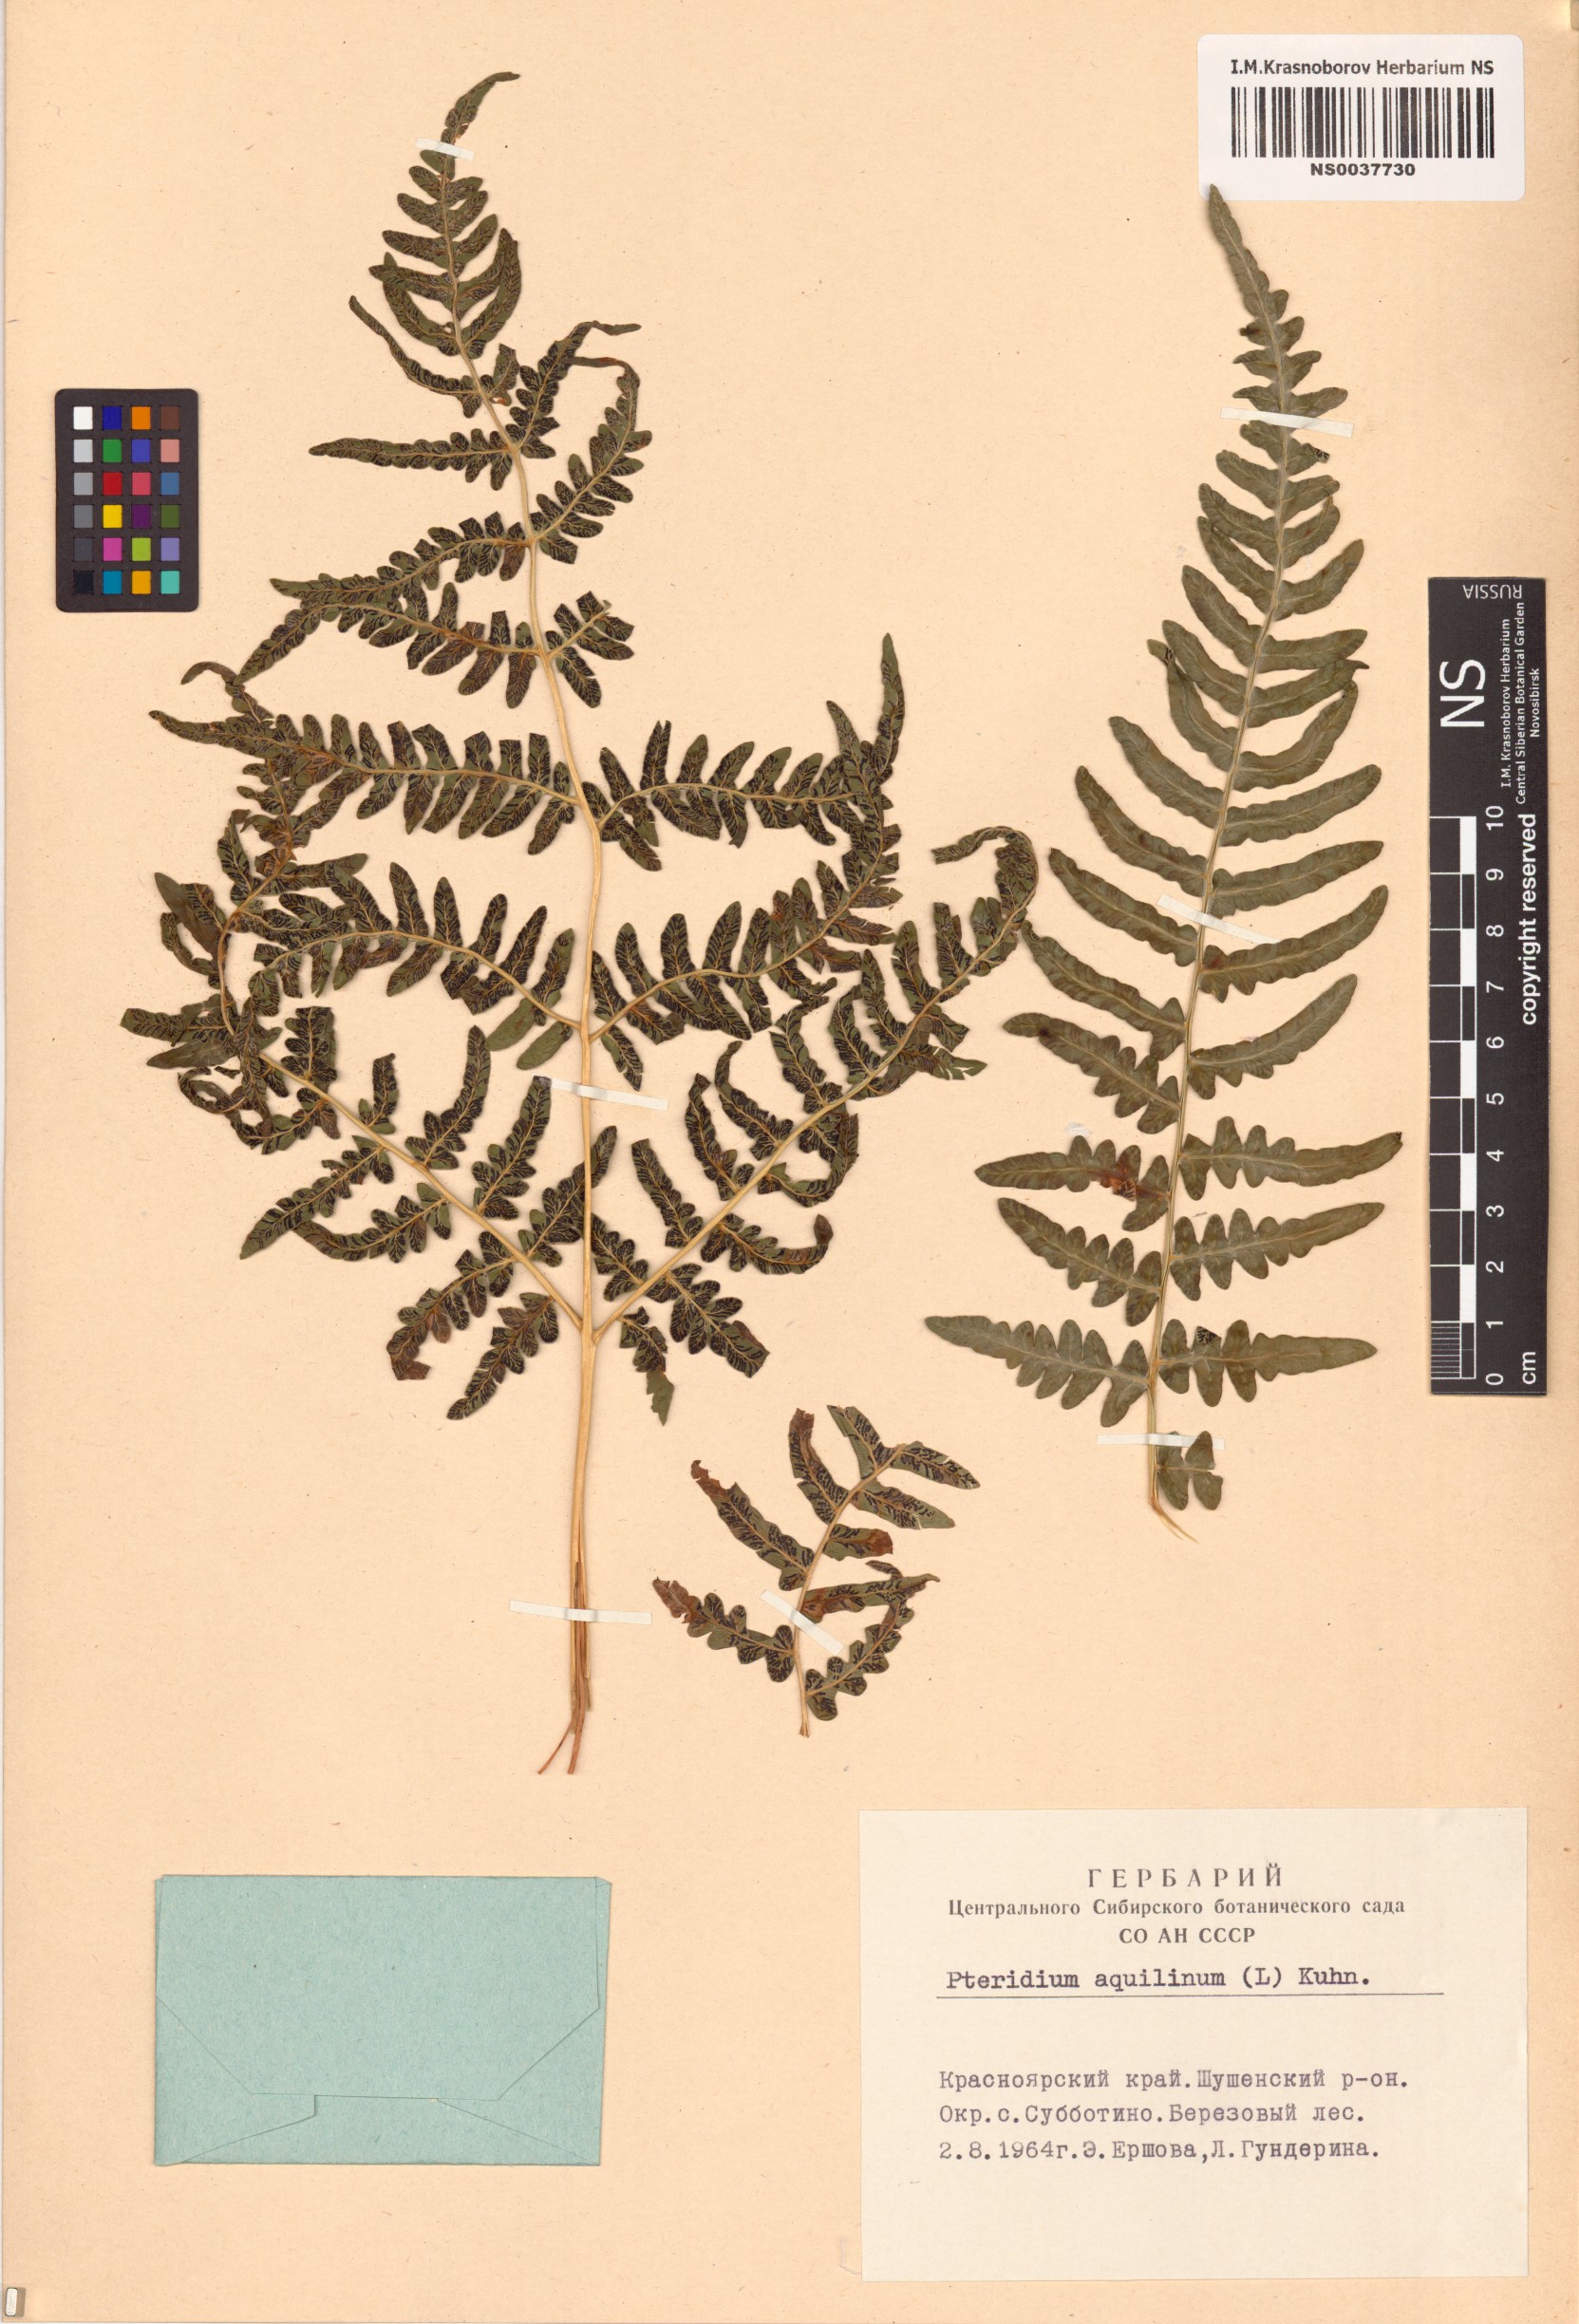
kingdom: Plantae
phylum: Tracheophyta
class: Polypodiopsida
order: Polypodiales
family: Dennstaedtiaceae
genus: Pteridium
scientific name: Pteridium aquilinum
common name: Bracken
